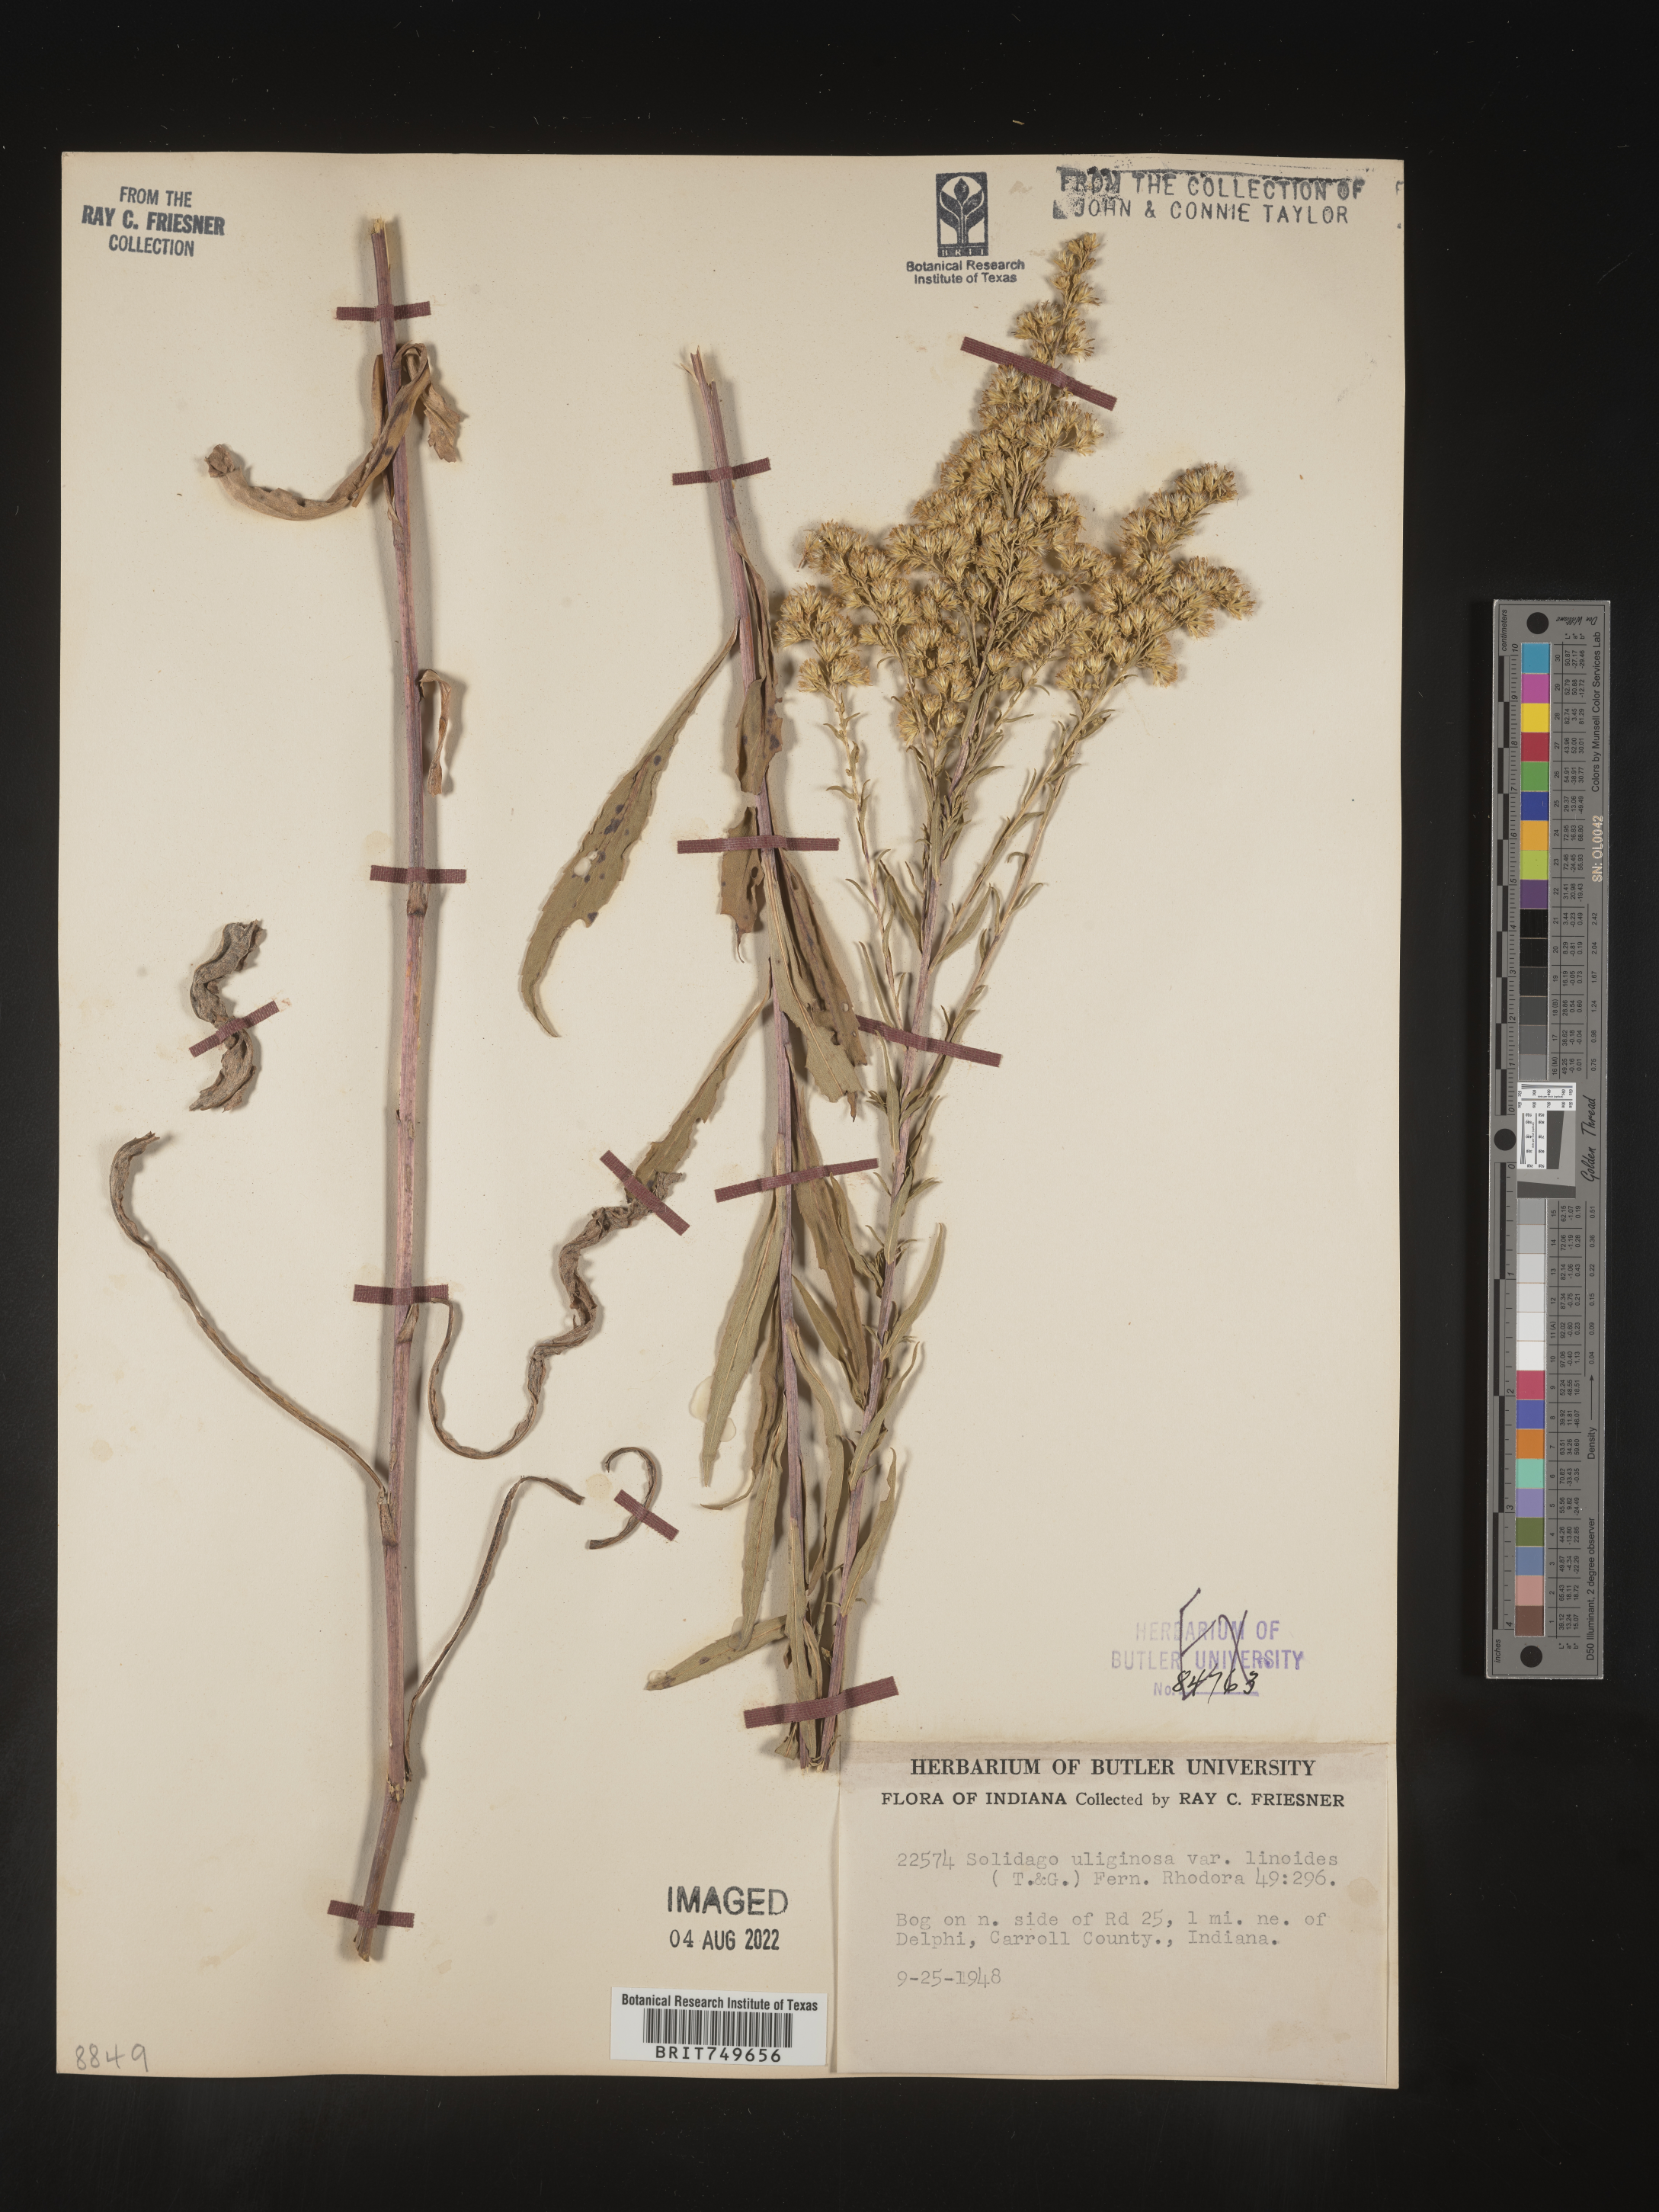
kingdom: Plantae
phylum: Tracheophyta
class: Magnoliopsida
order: Asterales
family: Asteraceae
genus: Solidago
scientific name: Solidago uliginosa
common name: Bog goldenrod
